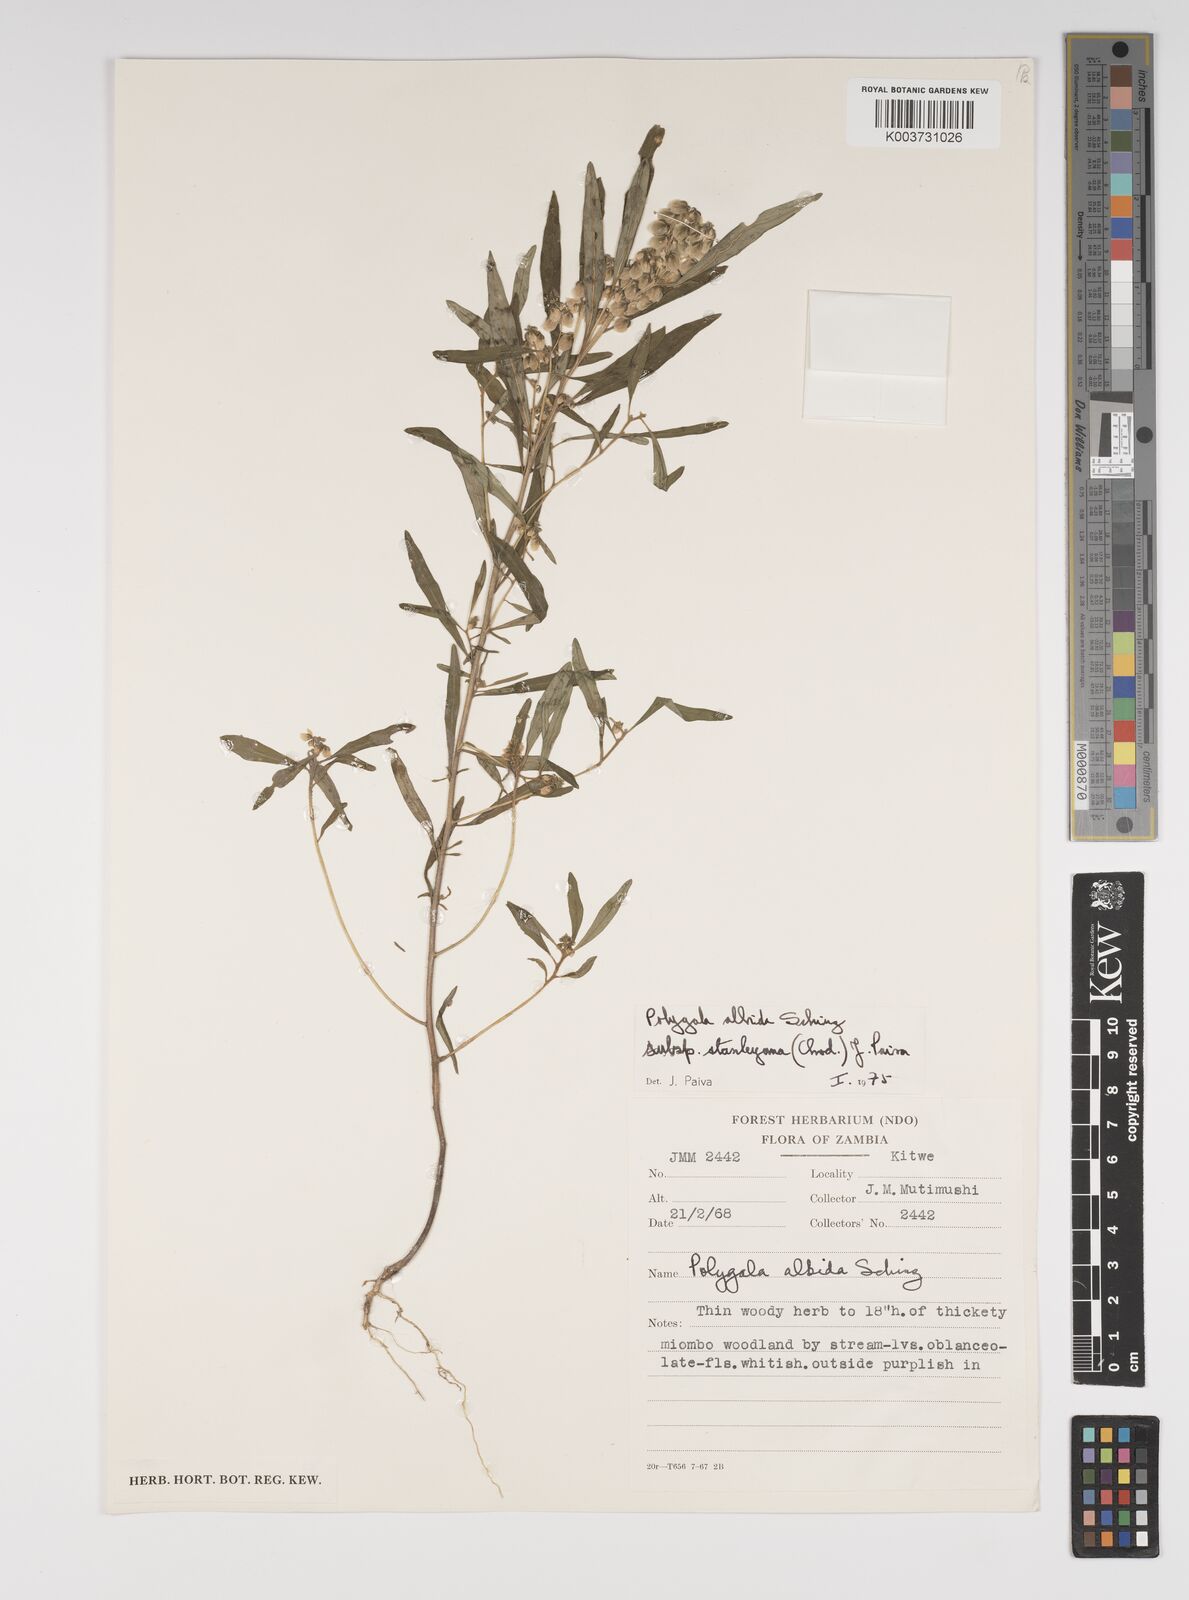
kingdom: Plantae
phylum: Tracheophyta
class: Magnoliopsida
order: Fabales
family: Polygalaceae
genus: Polygala
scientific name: Polygala albida
